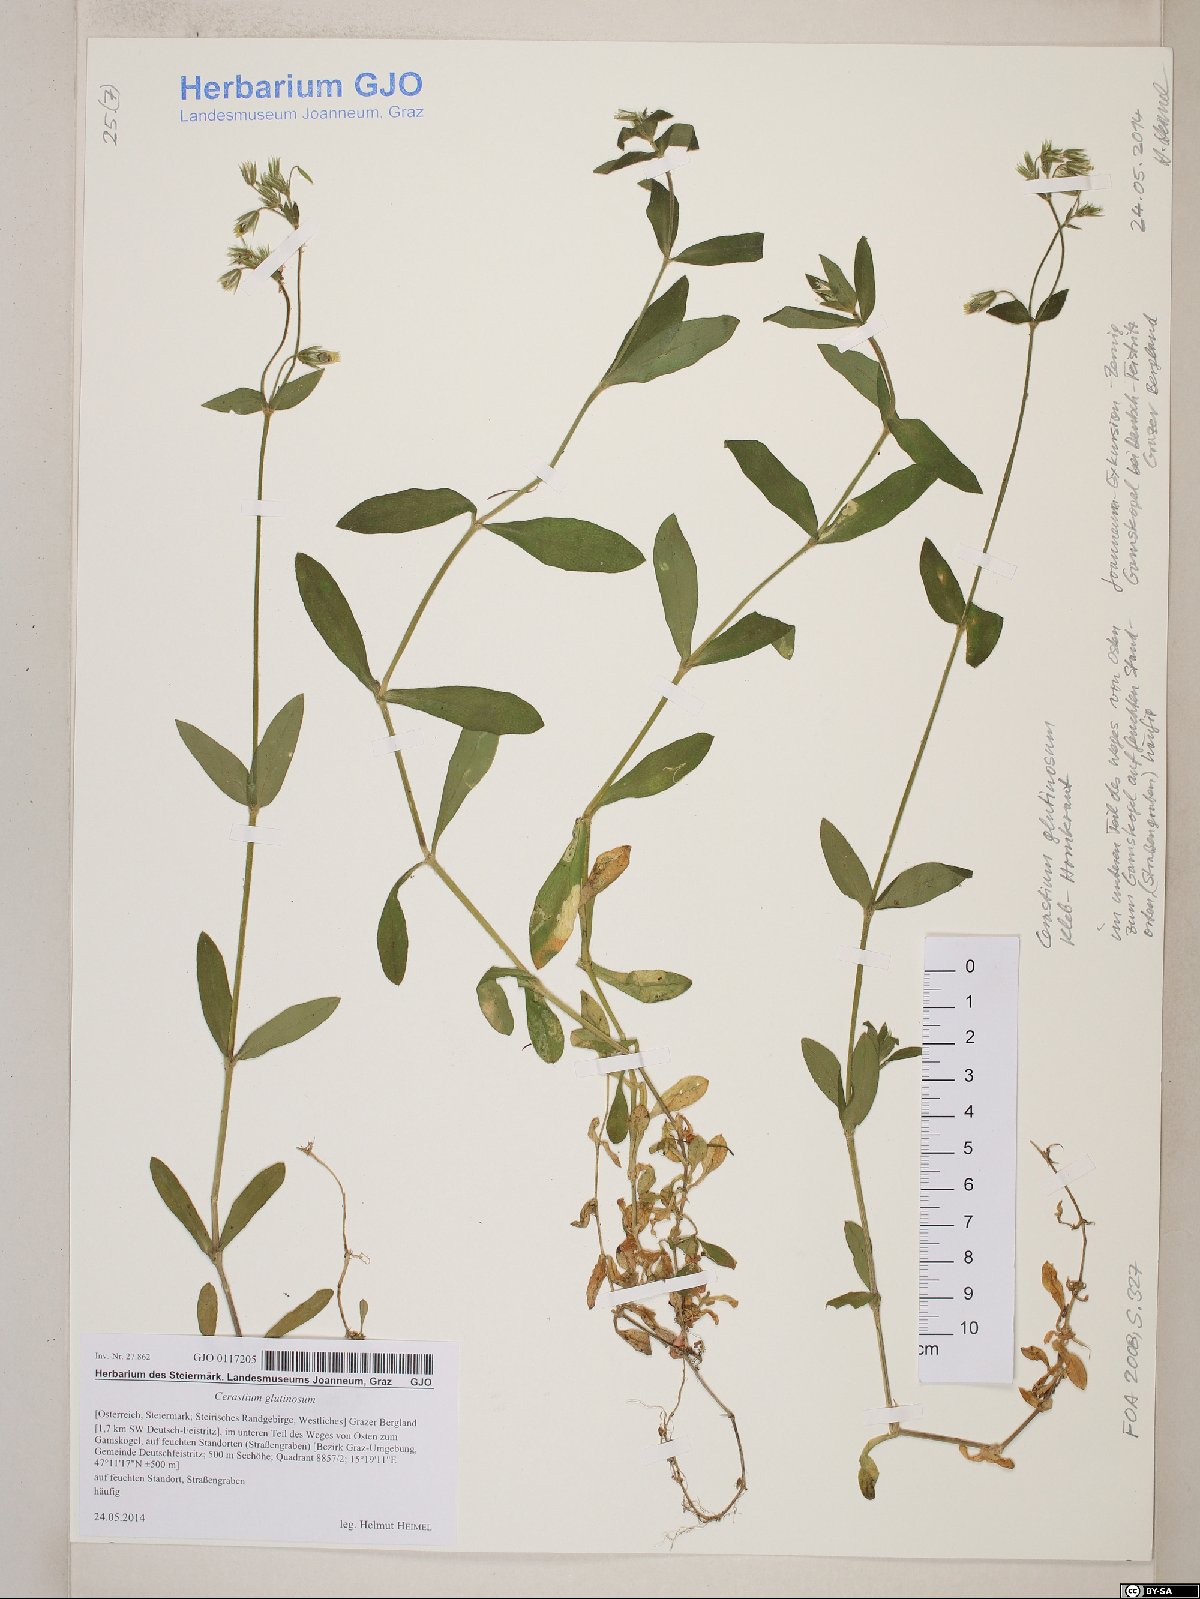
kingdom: Plantae
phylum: Tracheophyta
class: Magnoliopsida
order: Caryophyllales
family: Caryophyllaceae
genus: Cerastium
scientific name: Cerastium glutinosum
